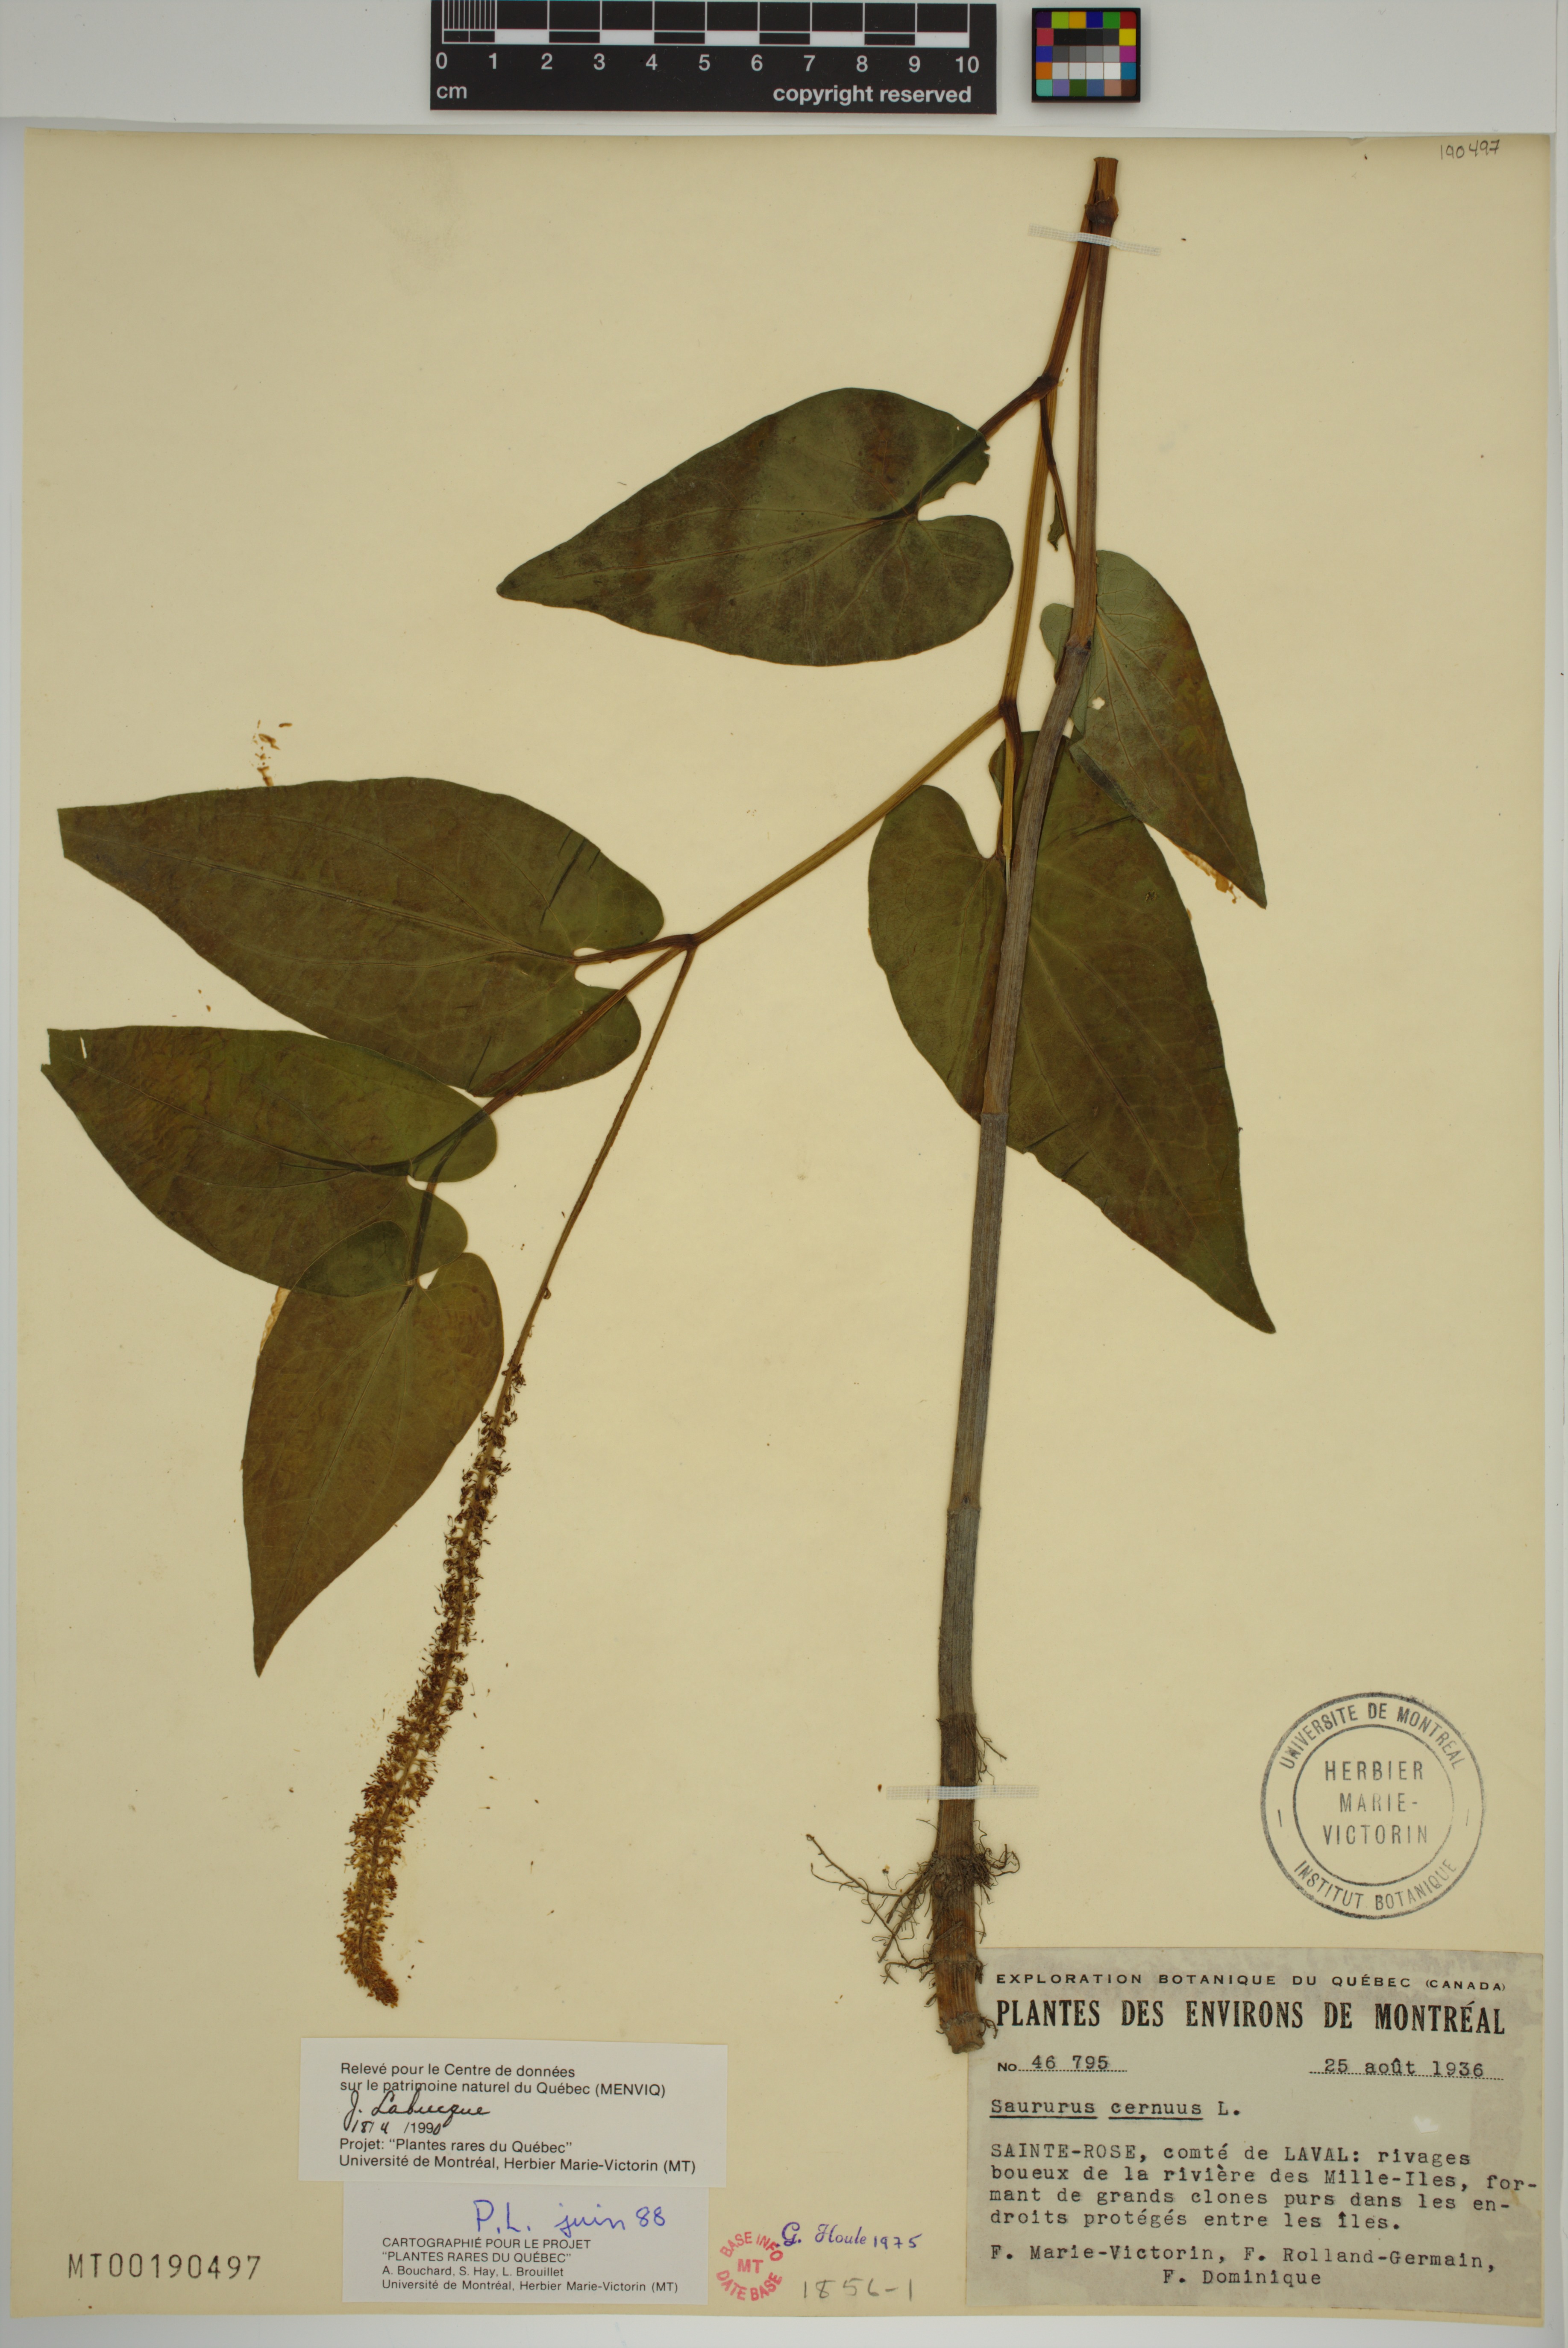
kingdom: Plantae
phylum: Tracheophyta
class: Magnoliopsida
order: Piperales
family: Saururaceae
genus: Saururus
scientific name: Saururus cernuus
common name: Lizard's-tail
